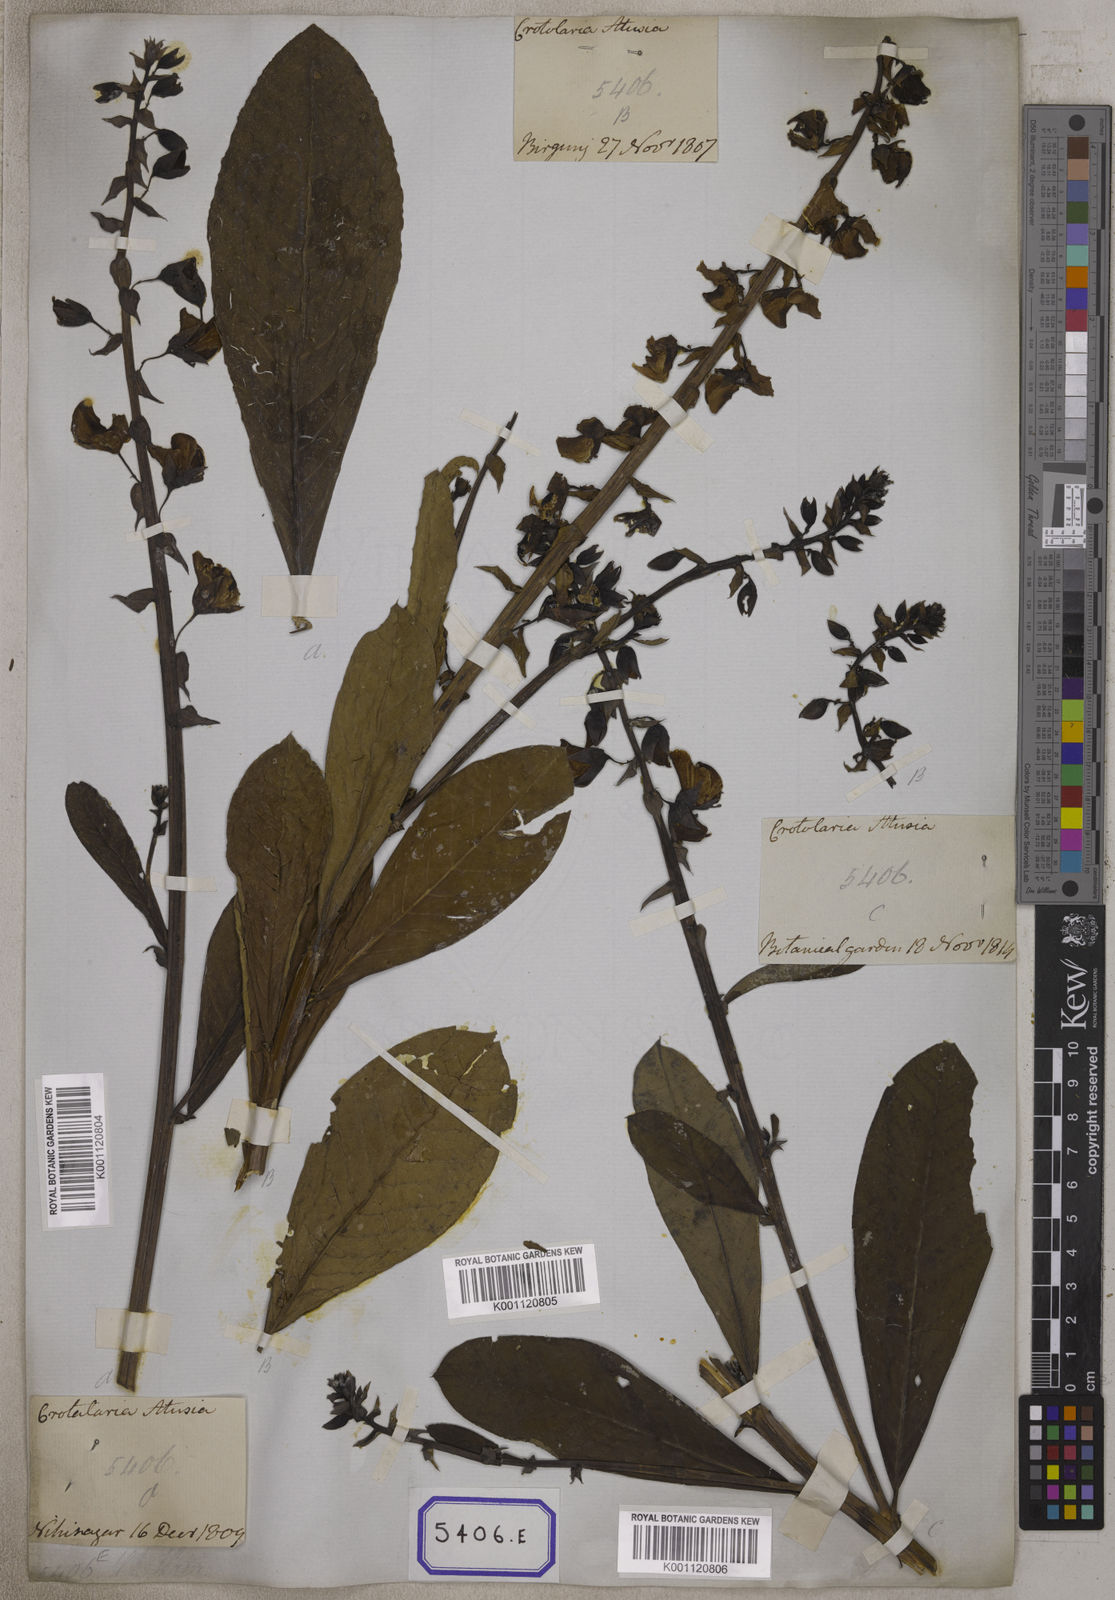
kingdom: Plantae
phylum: Tracheophyta
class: Magnoliopsida
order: Fabales
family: Fabaceae
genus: Crotalaria
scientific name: Crotalaria spectabilis
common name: Showy rattlebox
